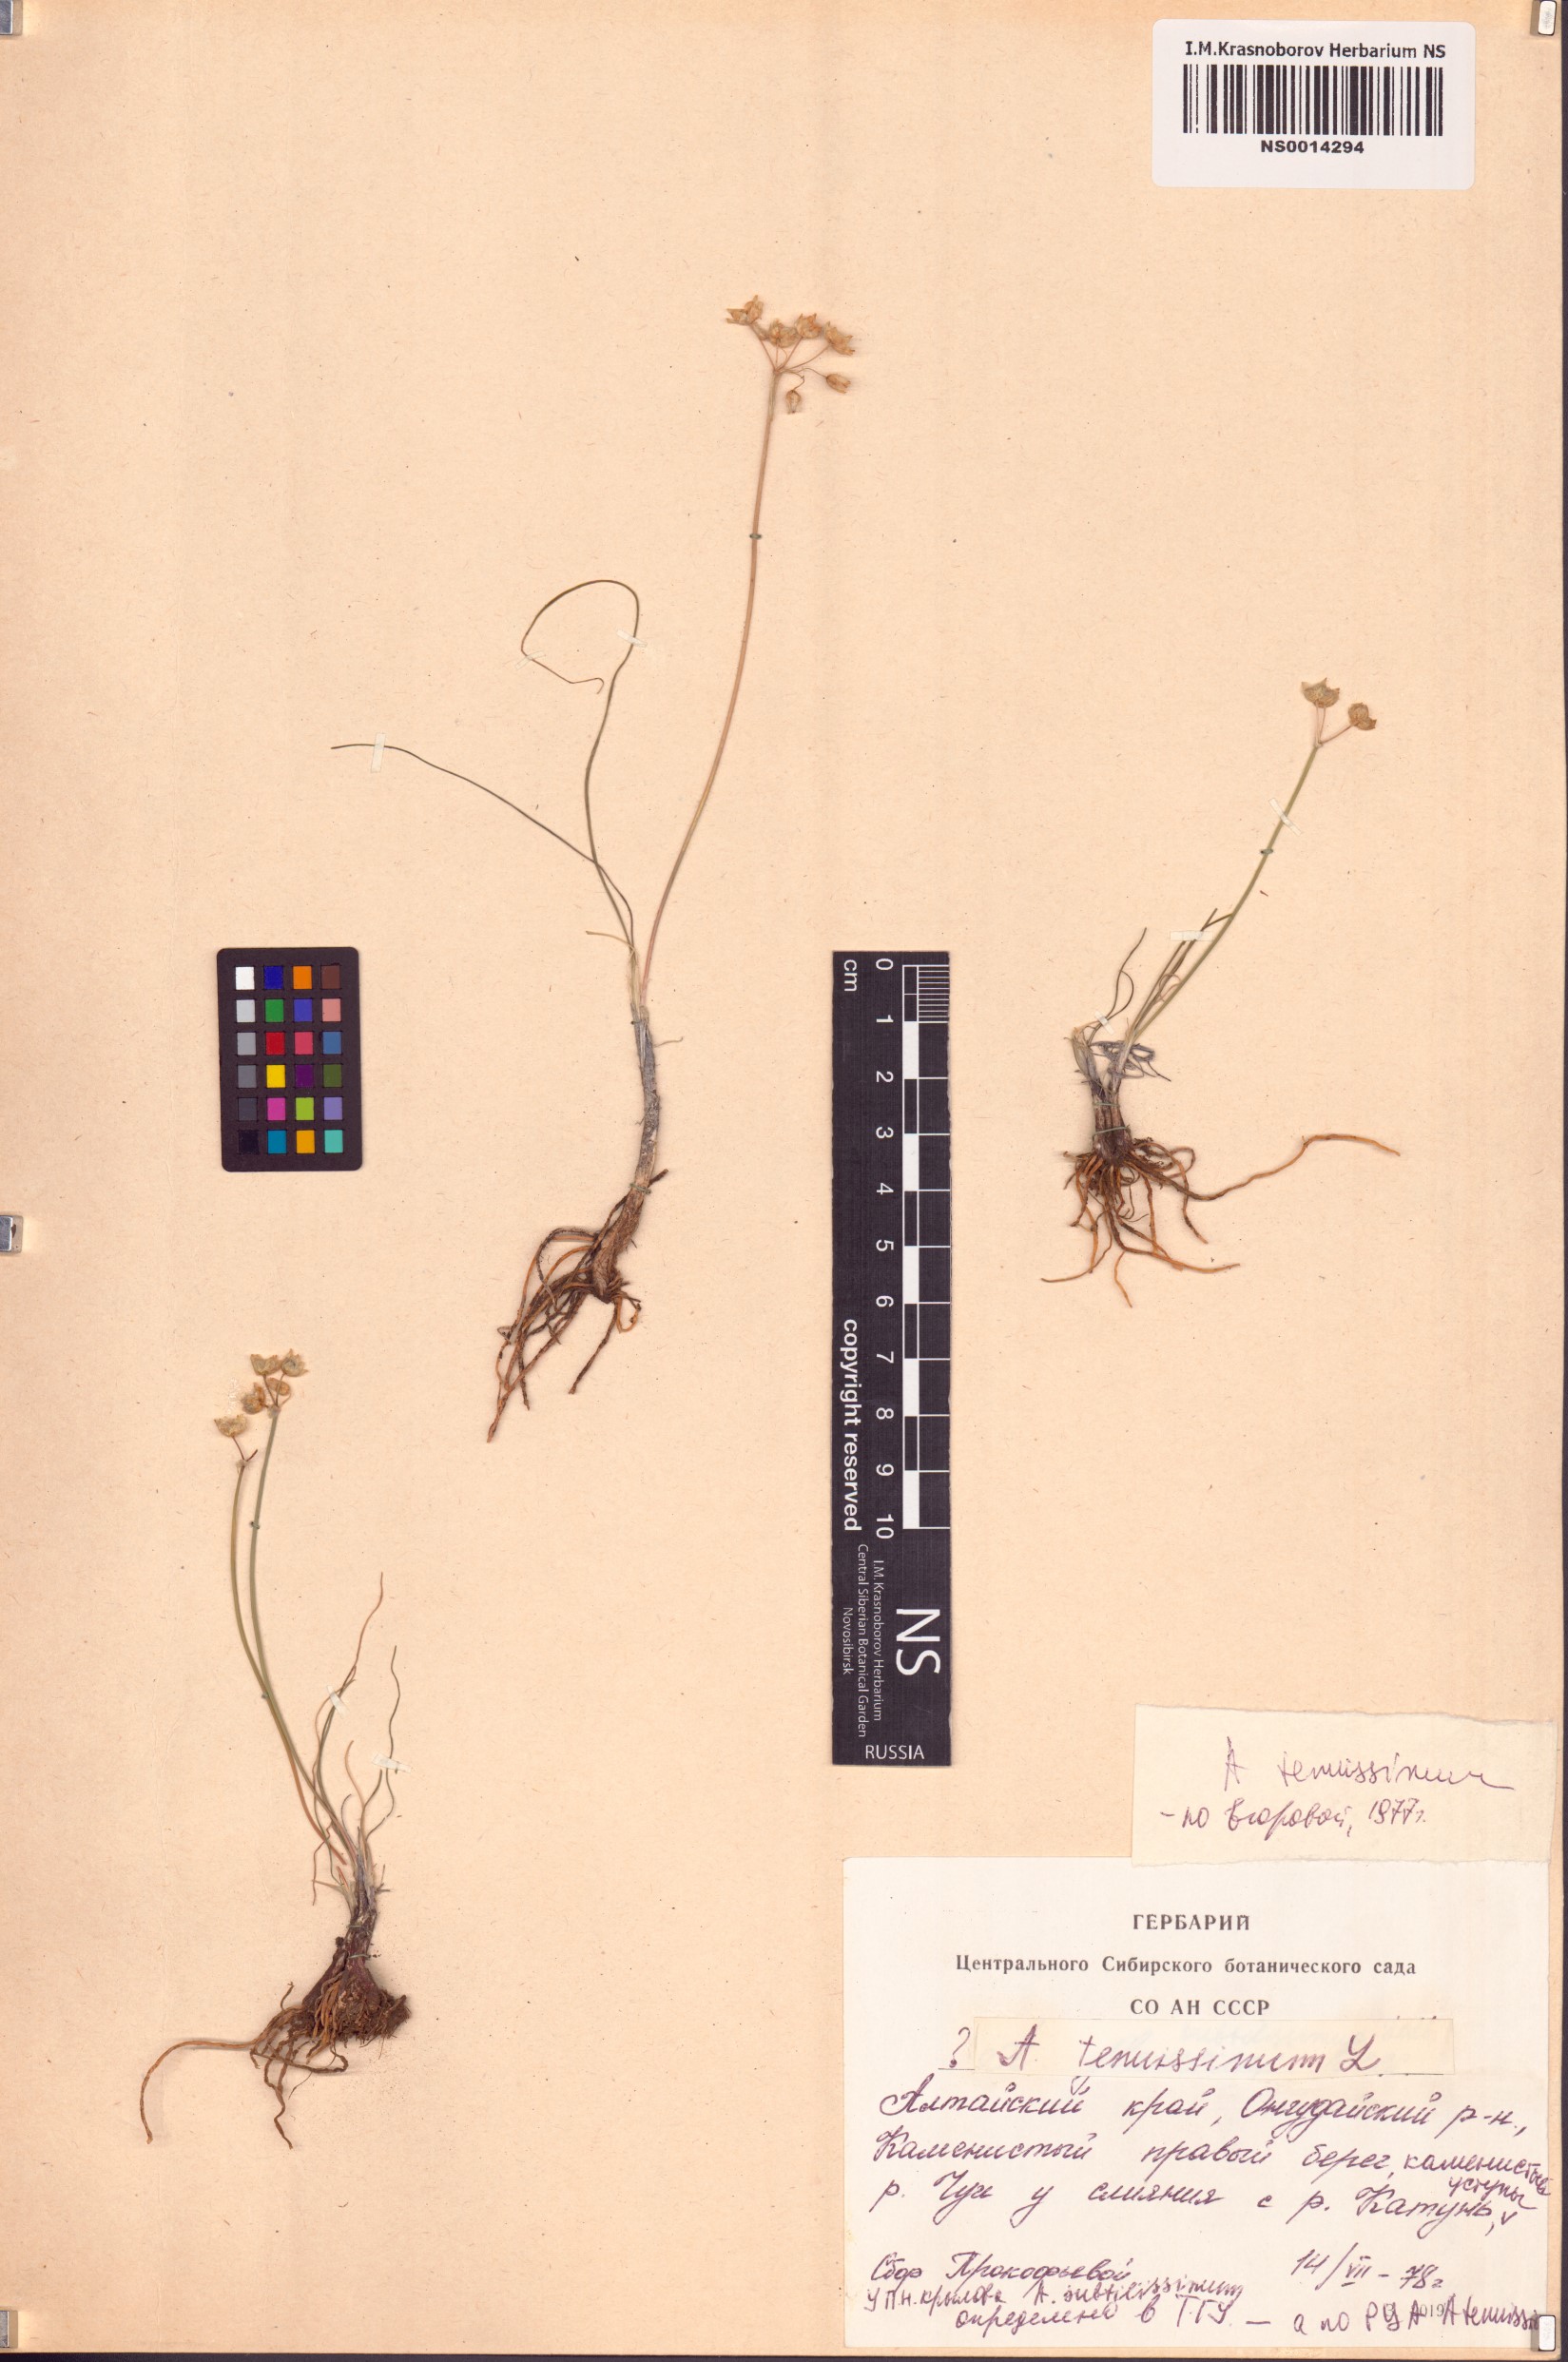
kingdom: Plantae
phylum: Tracheophyta
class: Liliopsida
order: Asparagales
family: Amaryllidaceae
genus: Allium
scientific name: Allium tenuissimum
